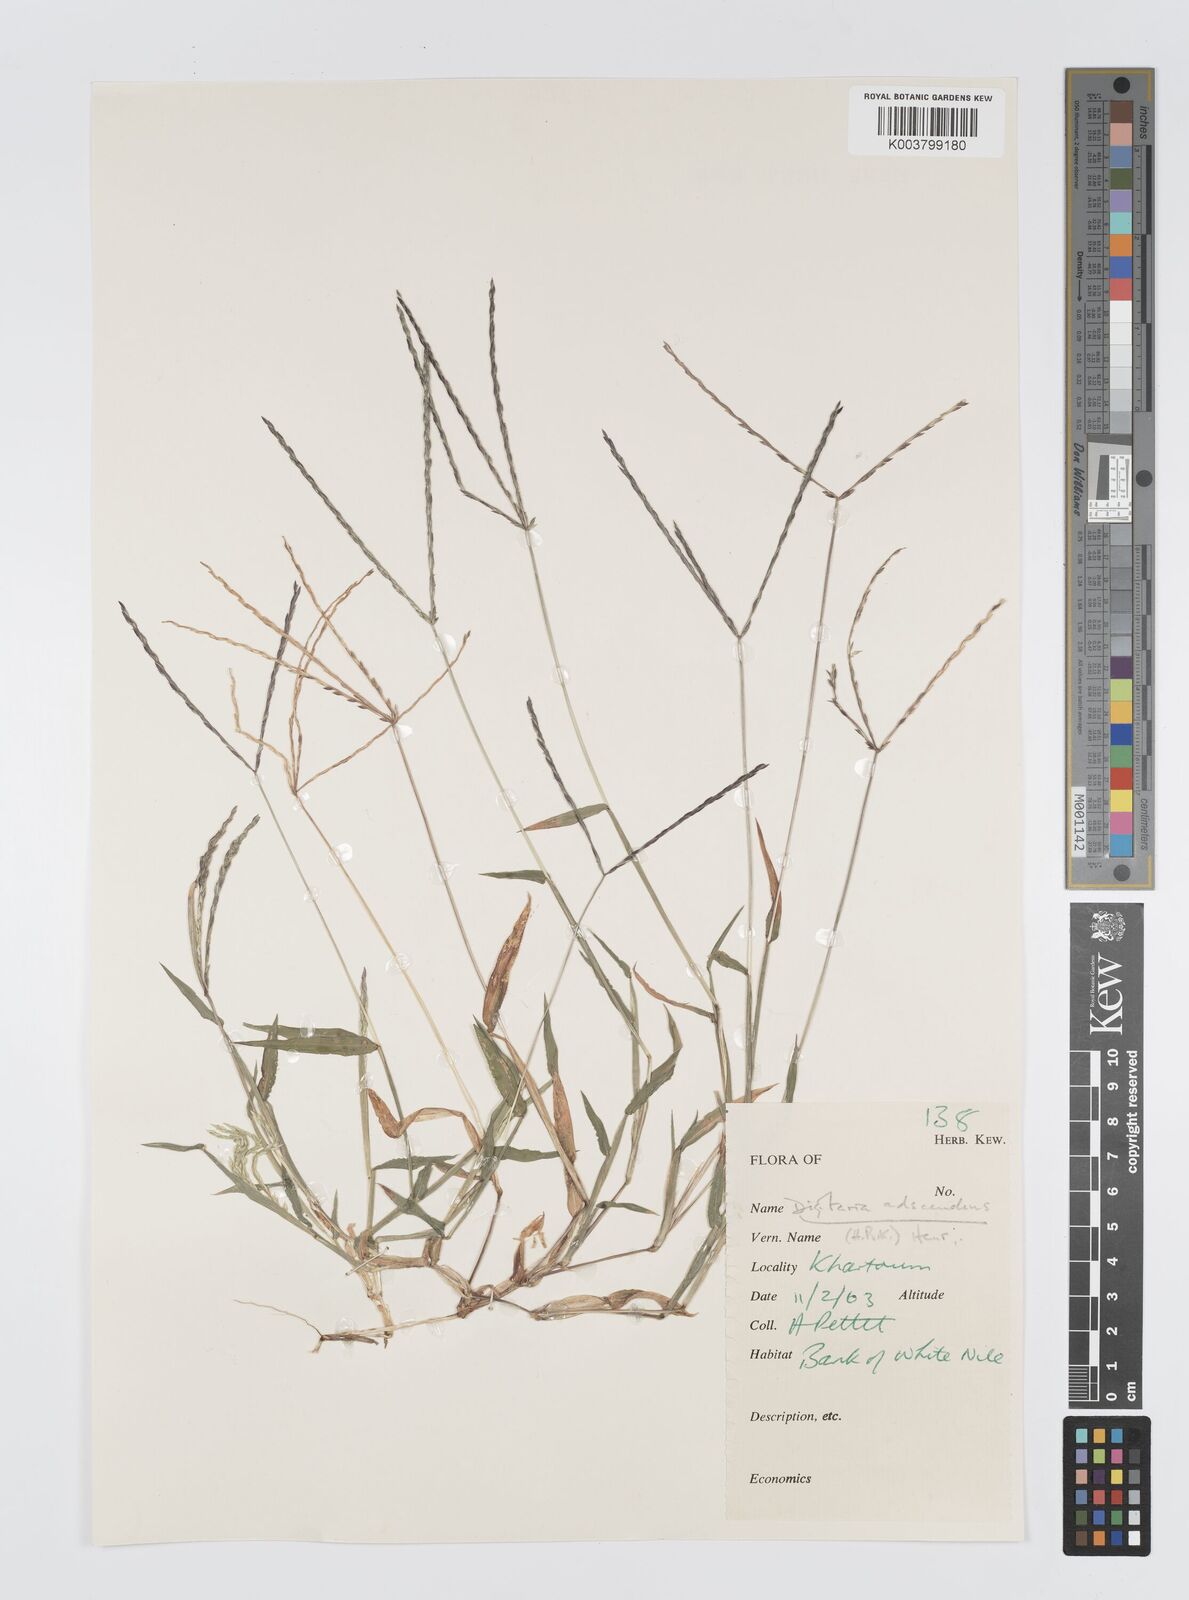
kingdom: Plantae
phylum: Tracheophyta
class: Liliopsida
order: Poales
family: Poaceae
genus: Digitaria
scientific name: Digitaria sanguinalis
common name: Hairy crabgrass
